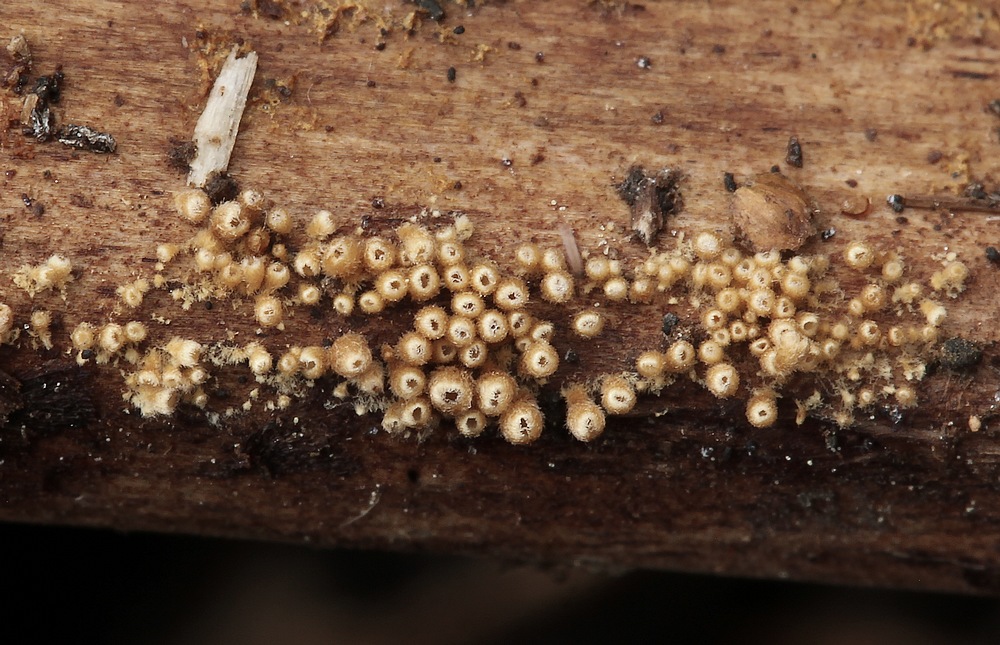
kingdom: Fungi
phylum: Basidiomycota
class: Agaricomycetes
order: Agaricales
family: Niaceae
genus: Woldmaria
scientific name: Woldmaria filicina
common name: bregnerør
